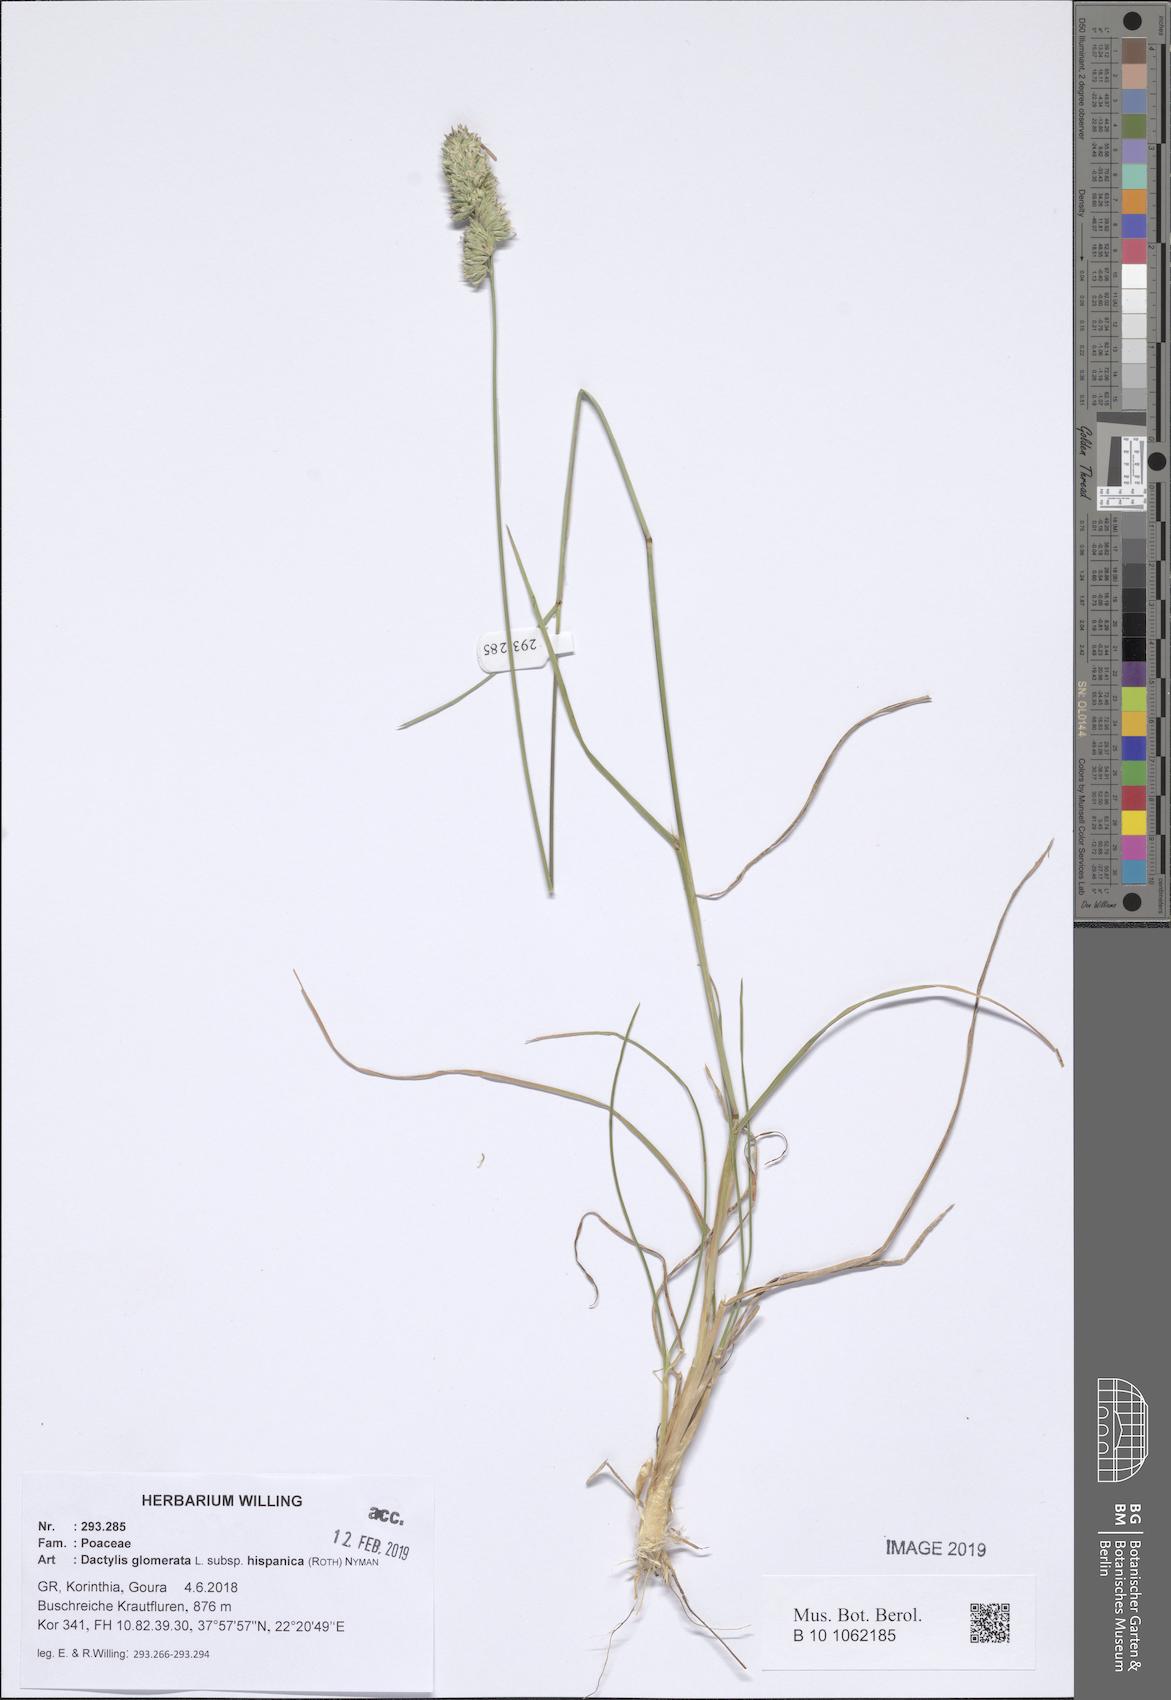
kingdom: Plantae
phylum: Tracheophyta
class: Liliopsida
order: Poales
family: Poaceae
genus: Dactylis
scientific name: Dactylis glomerata
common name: Orchardgrass
